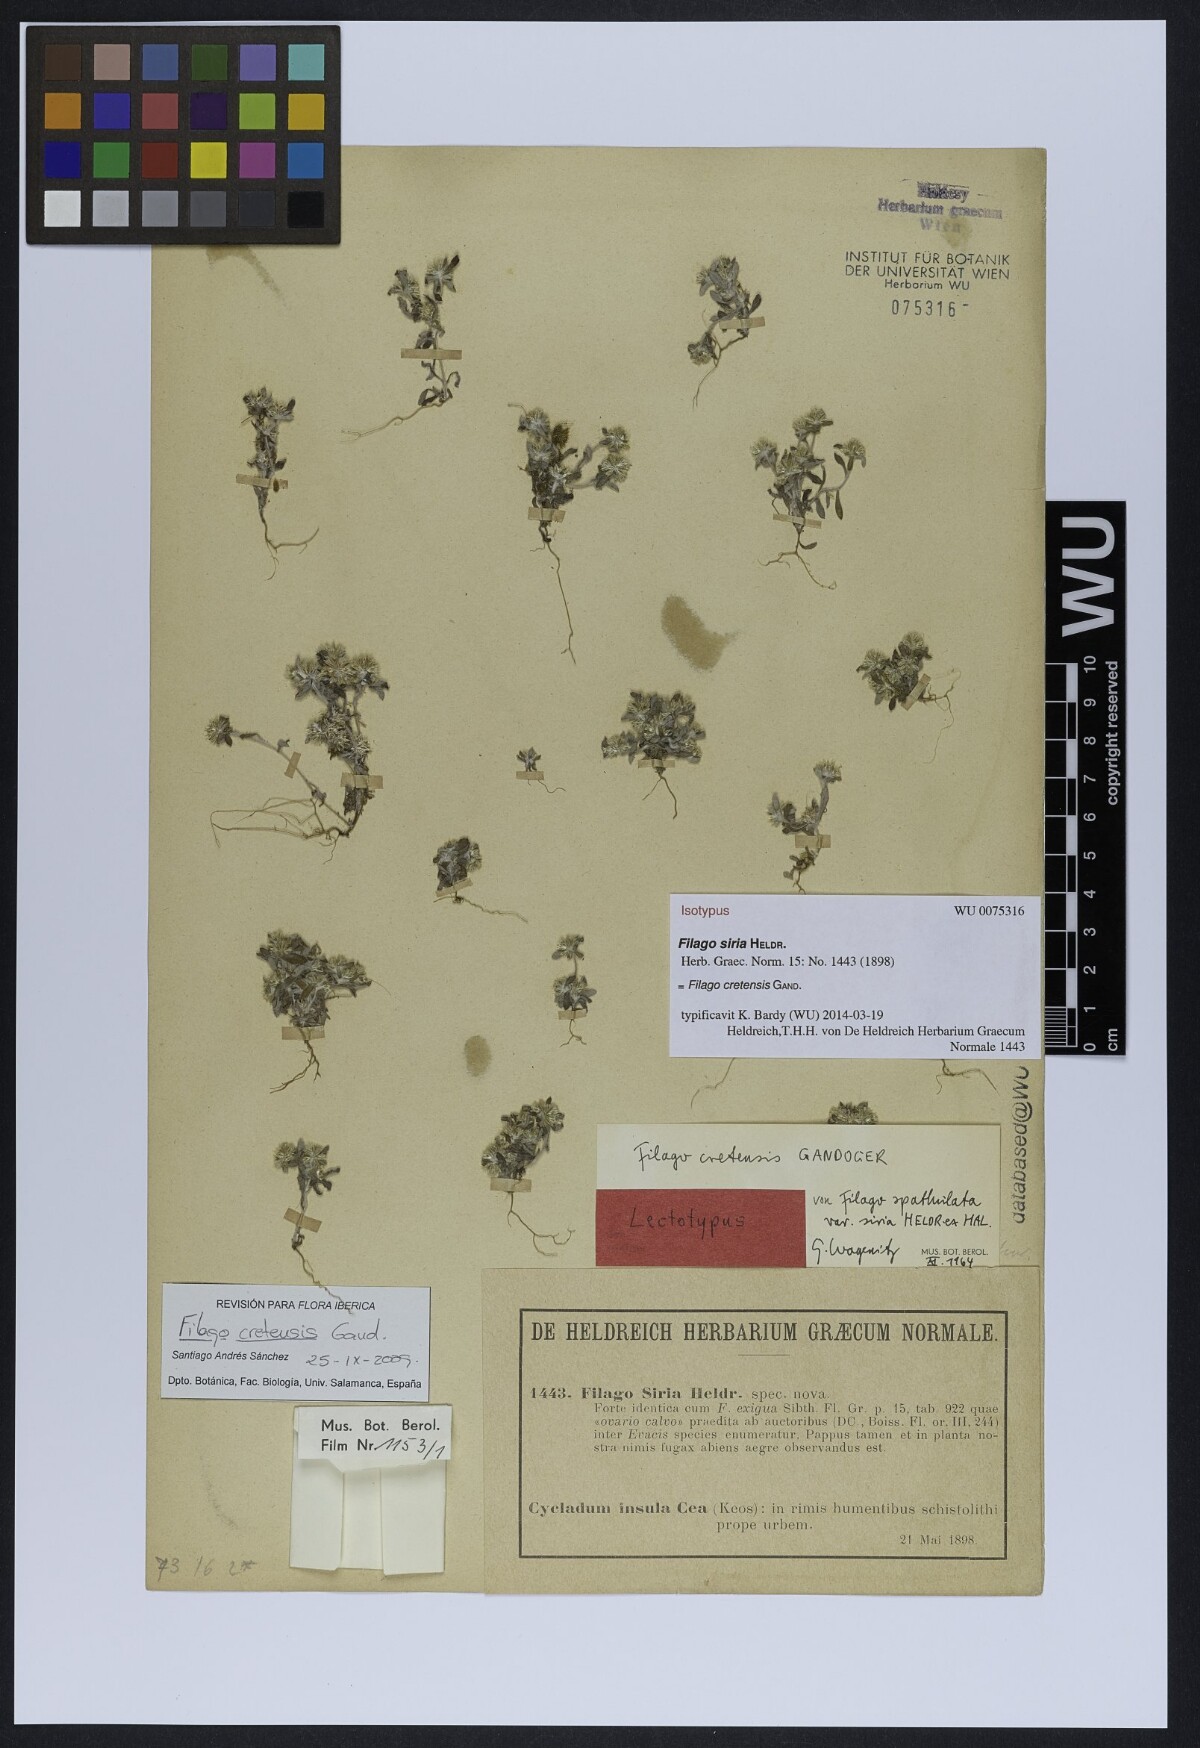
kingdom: Plantae
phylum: Tracheophyta
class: Magnoliopsida
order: Asterales
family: Asteraceae
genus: Filago
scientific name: Filago
